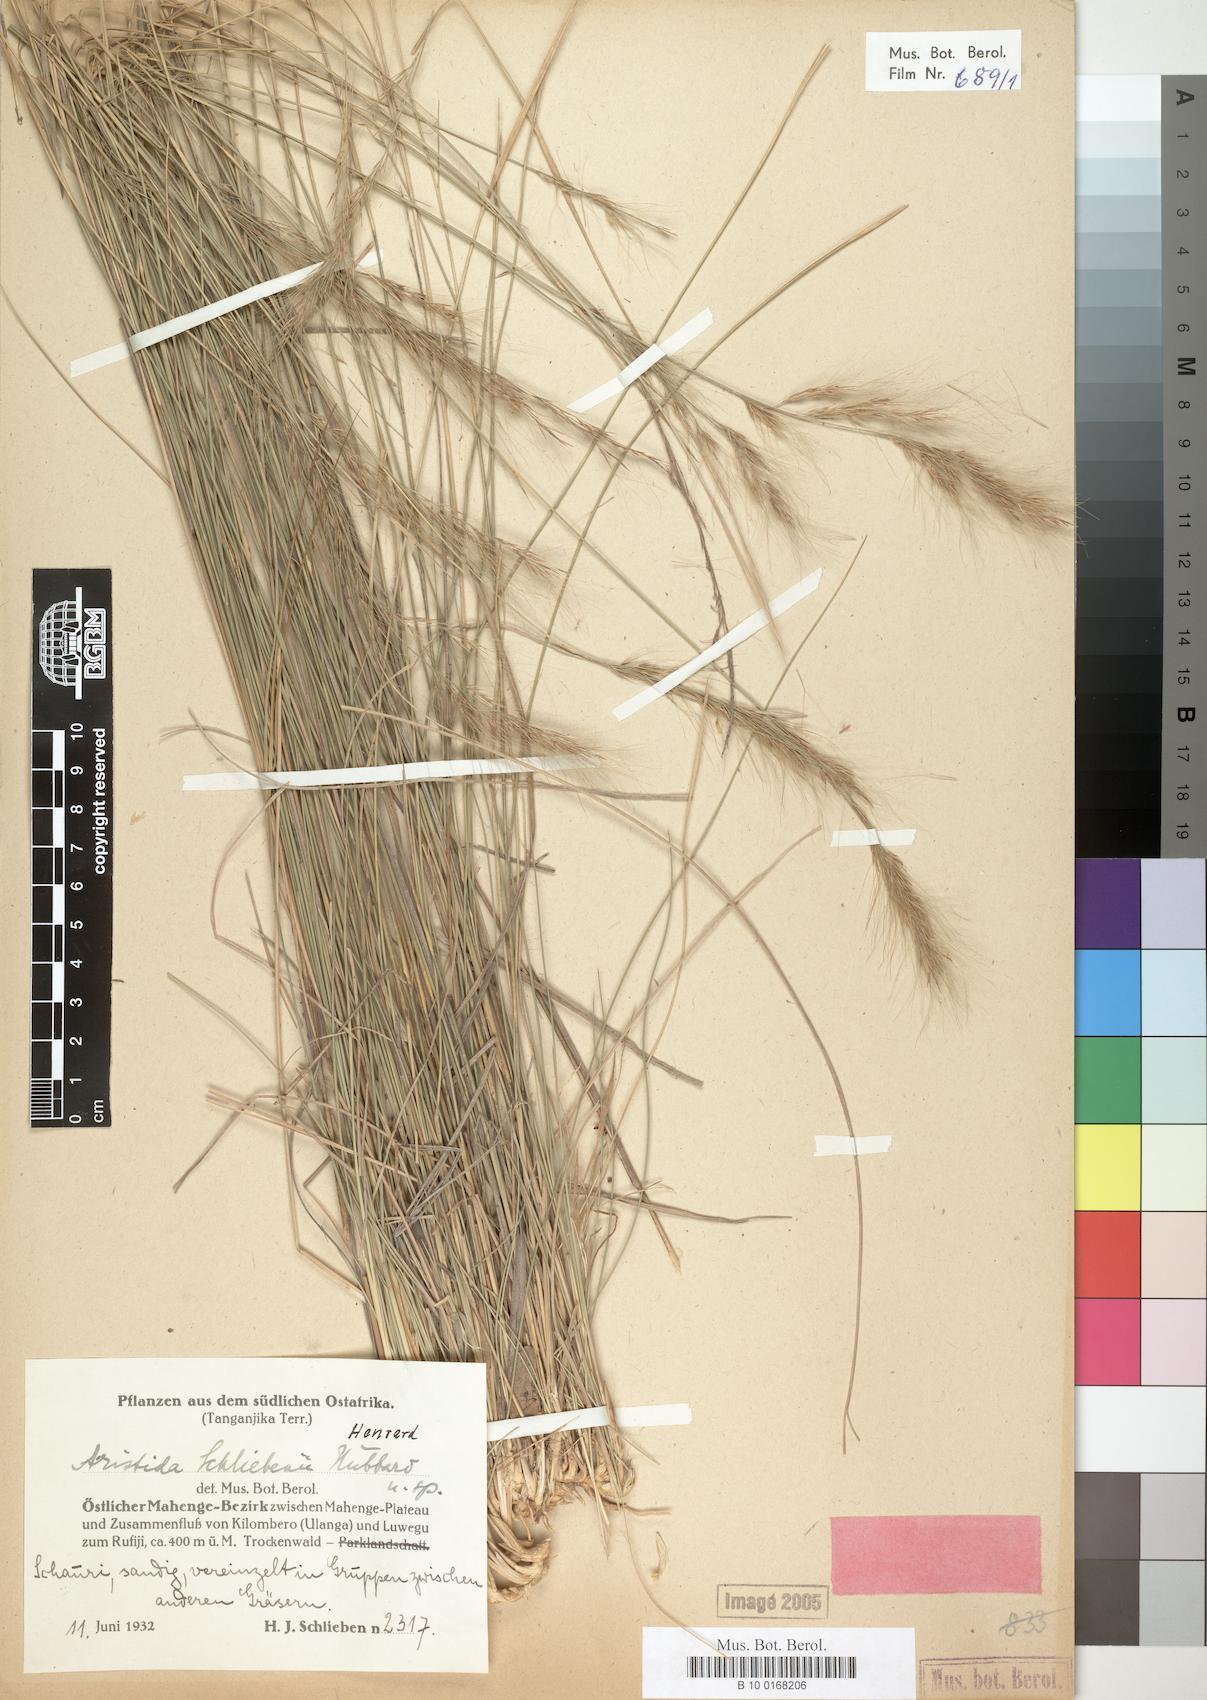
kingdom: Plantae
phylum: Tracheophyta
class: Liliopsida
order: Poales
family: Poaceae
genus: Aristida
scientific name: Aristida junciformis
